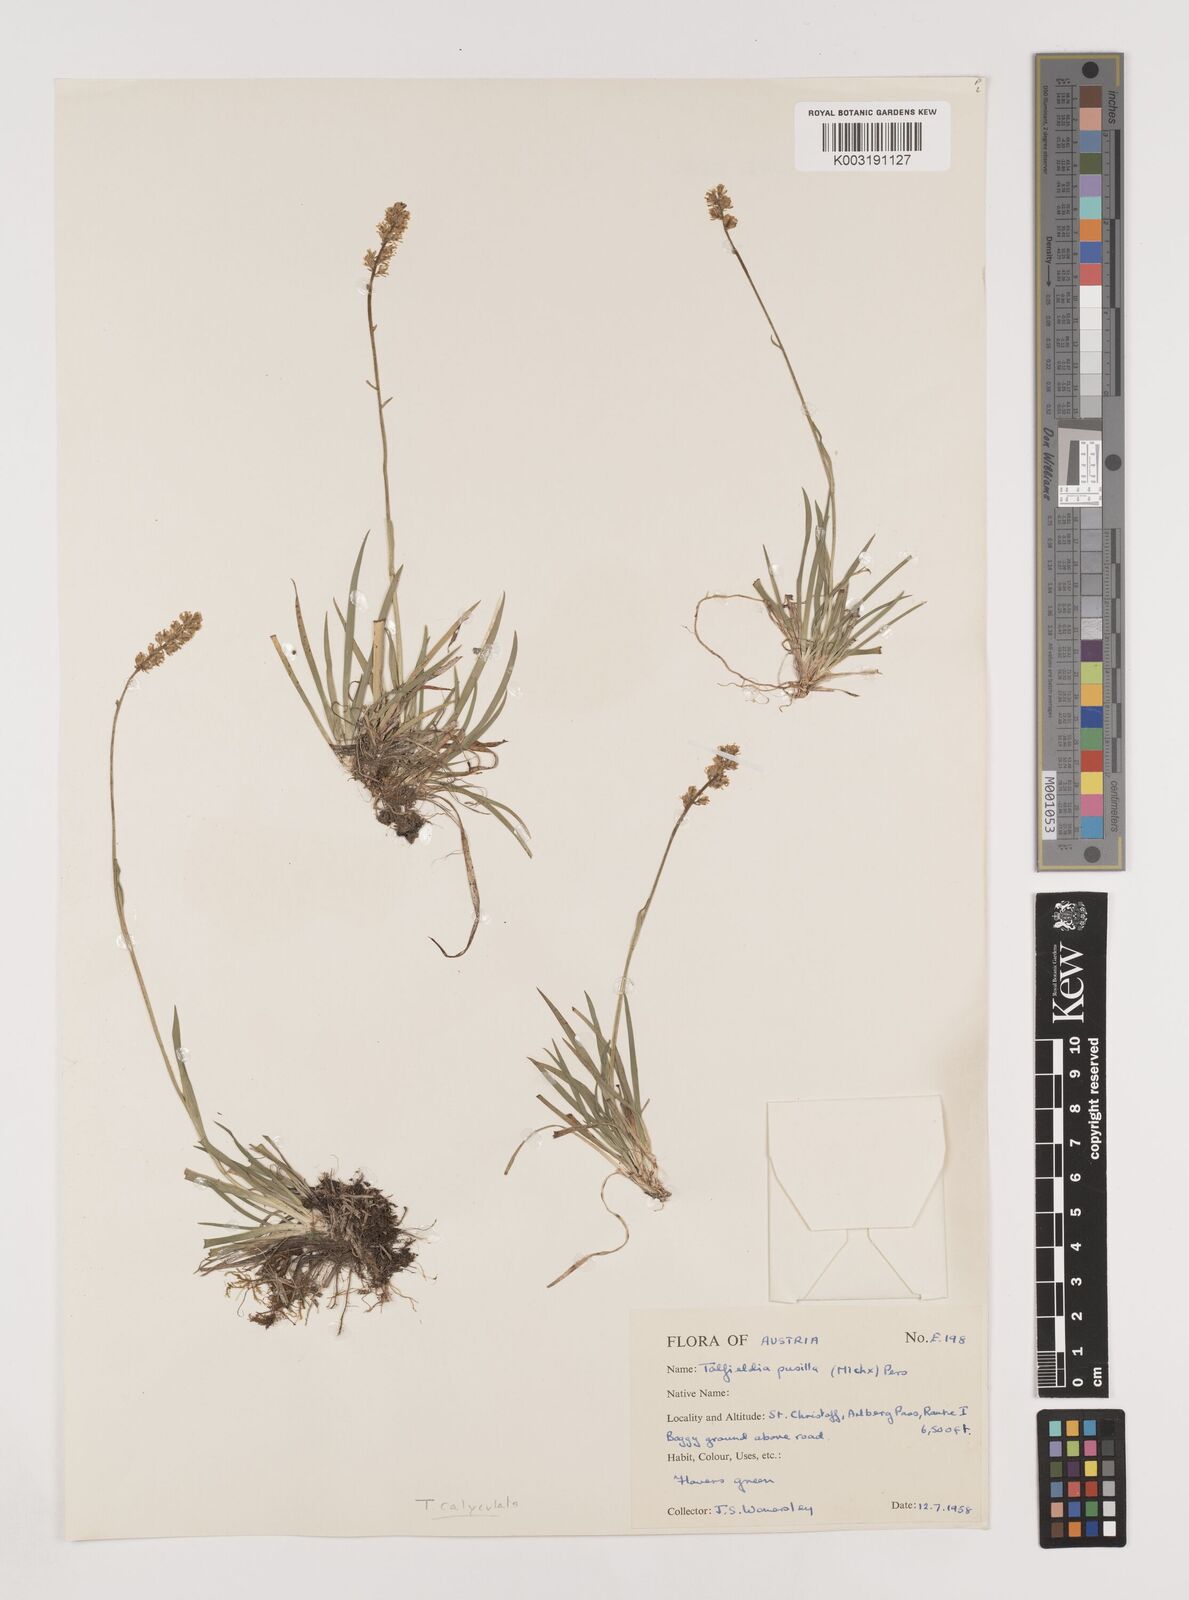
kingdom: Plantae
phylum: Tracheophyta
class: Liliopsida
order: Alismatales
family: Tofieldiaceae
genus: Tofieldia
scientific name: Tofieldia
